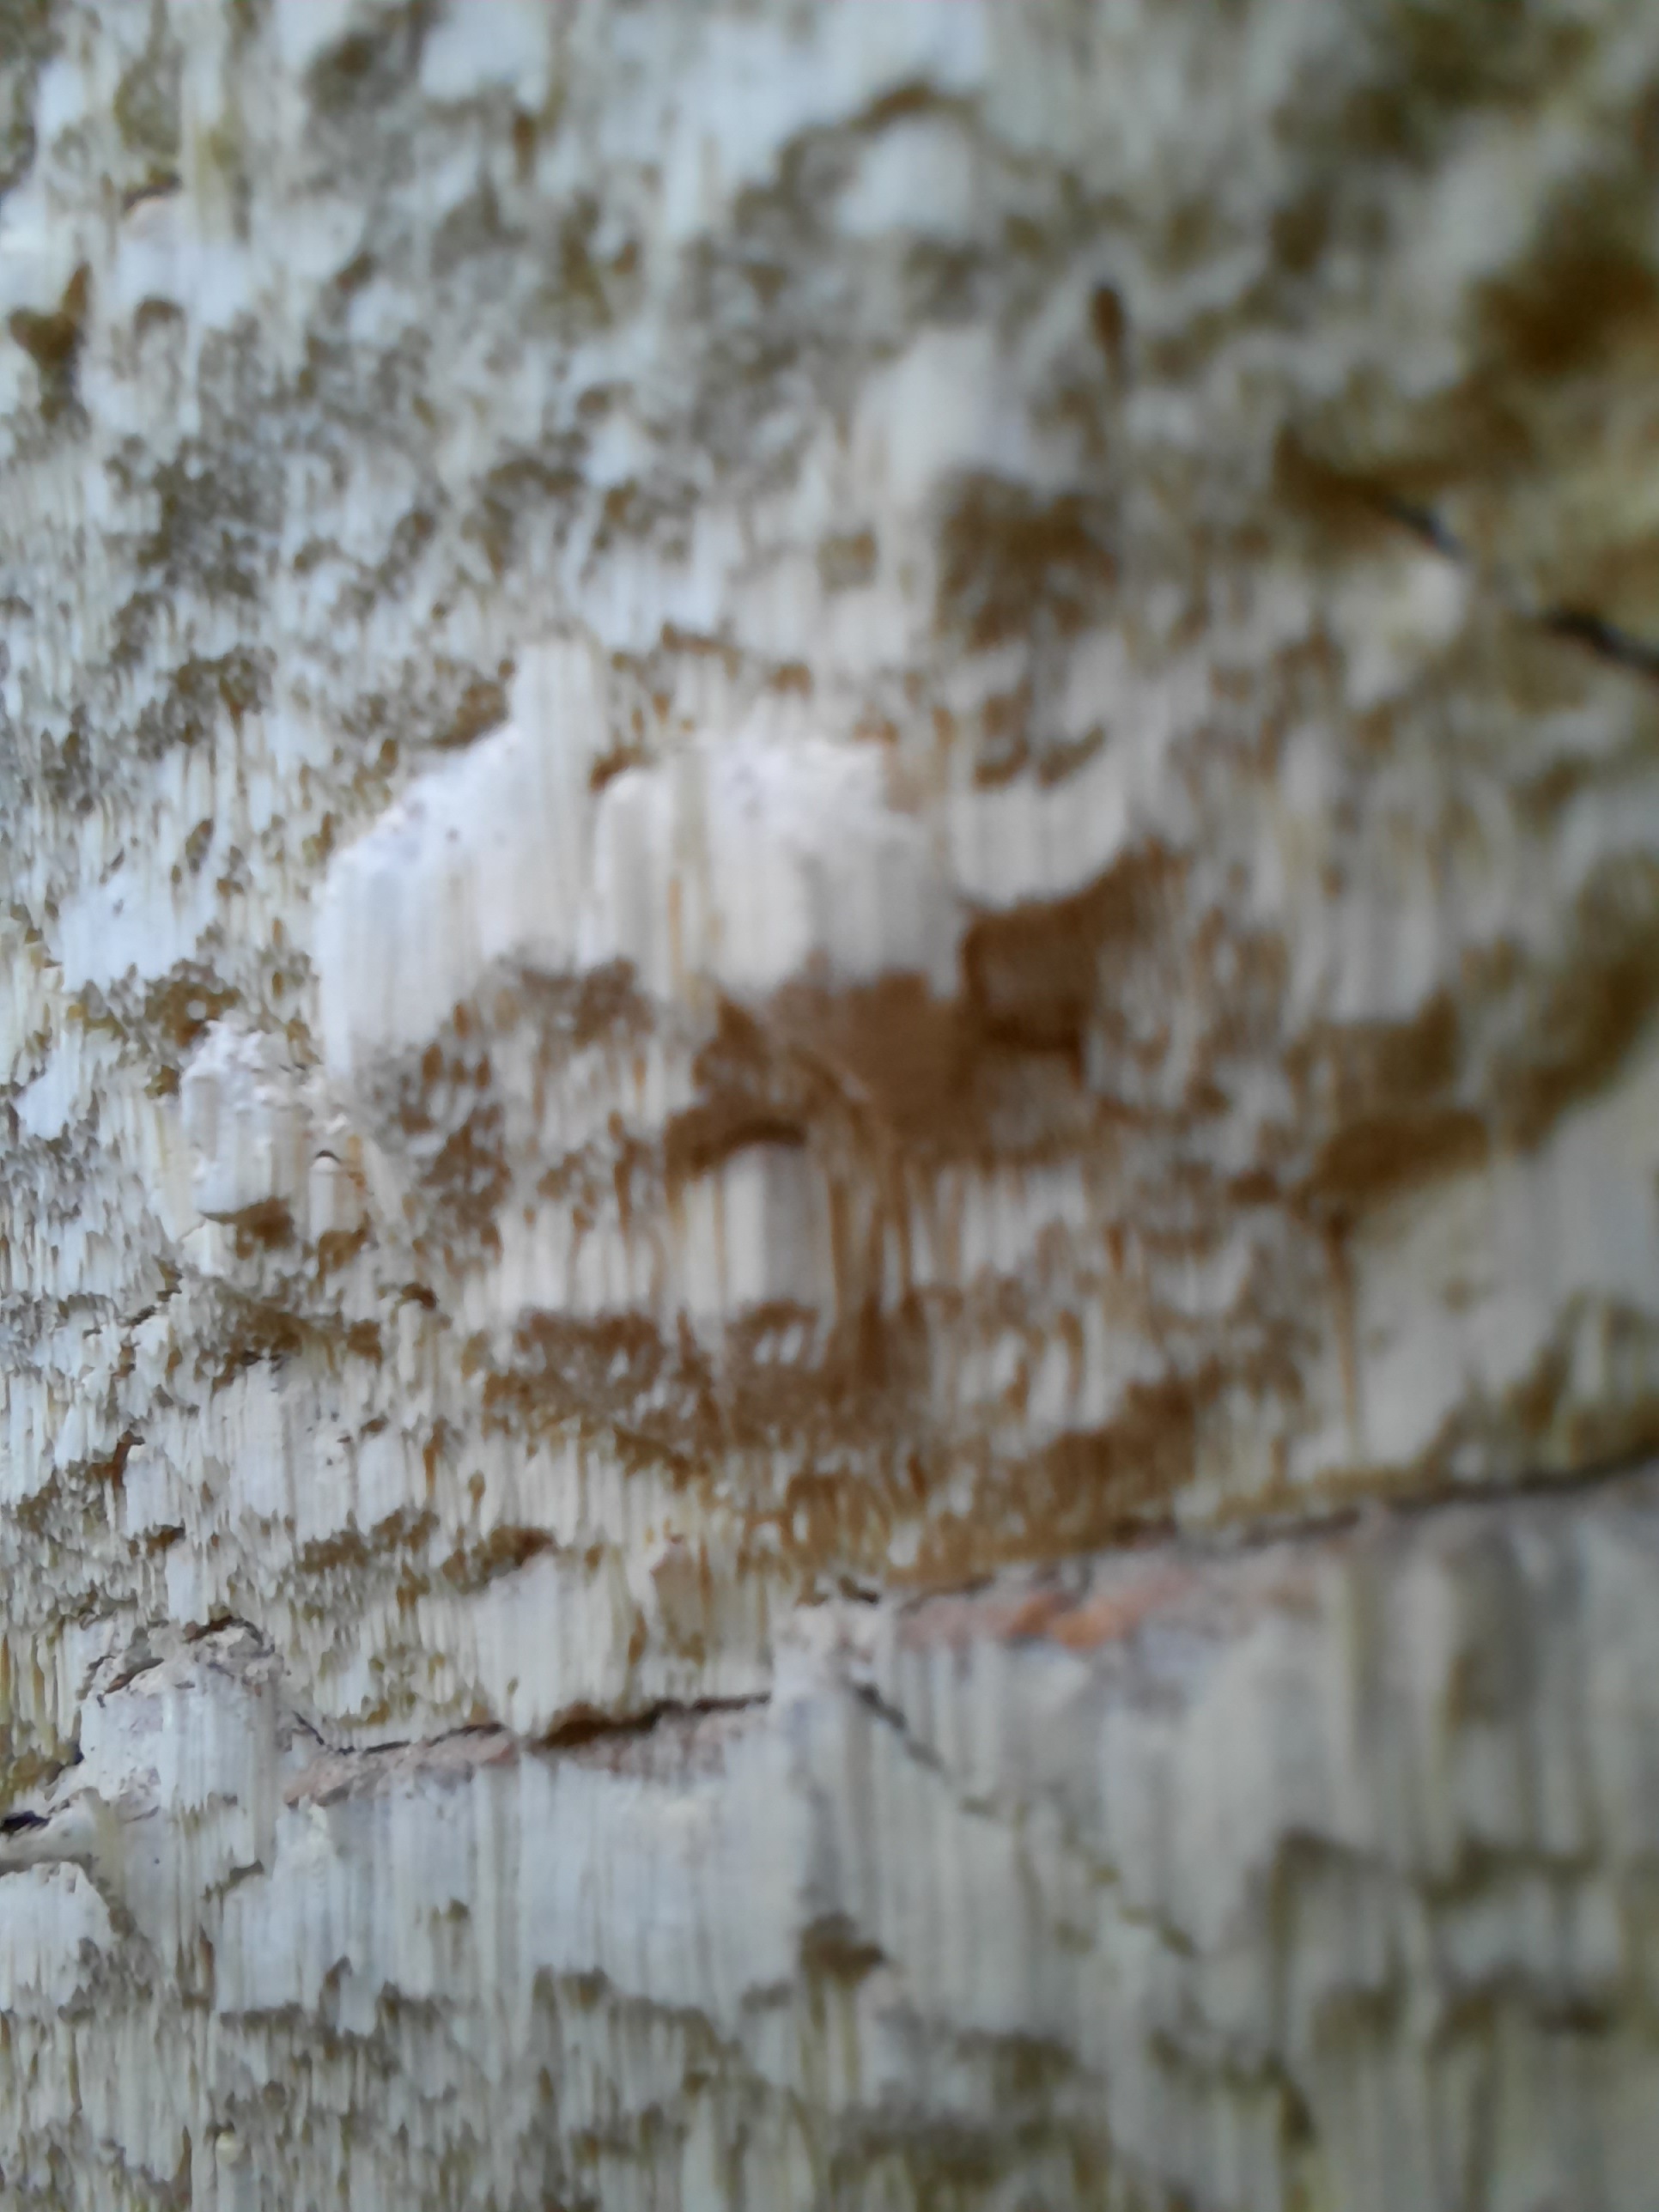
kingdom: Fungi
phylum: Basidiomycota
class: Agaricomycetes
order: Polyporales
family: Fomitopsidaceae
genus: Daedalea
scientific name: Daedalea xantha
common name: gul sejporesvamp
